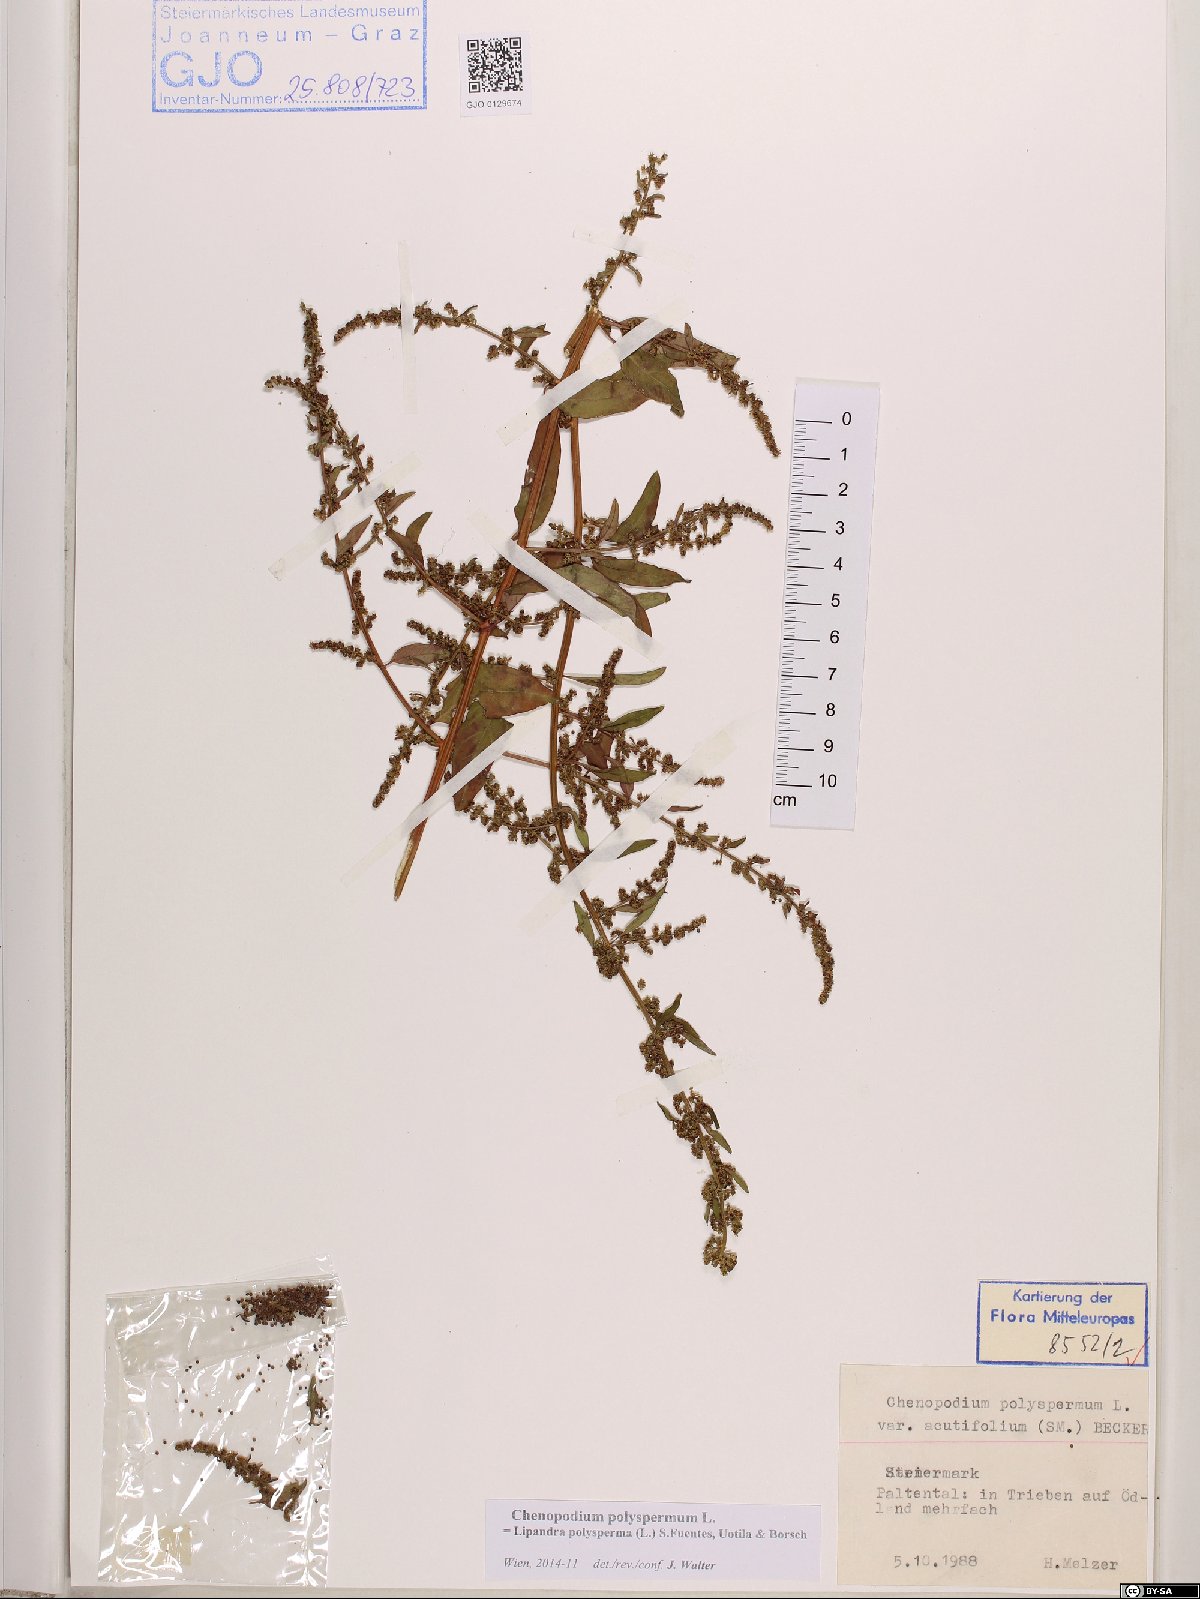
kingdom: Plantae
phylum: Tracheophyta
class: Magnoliopsida
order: Caryophyllales
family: Amaranthaceae
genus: Lipandra
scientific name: Lipandra polysperma
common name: Many-seed goosefoot
